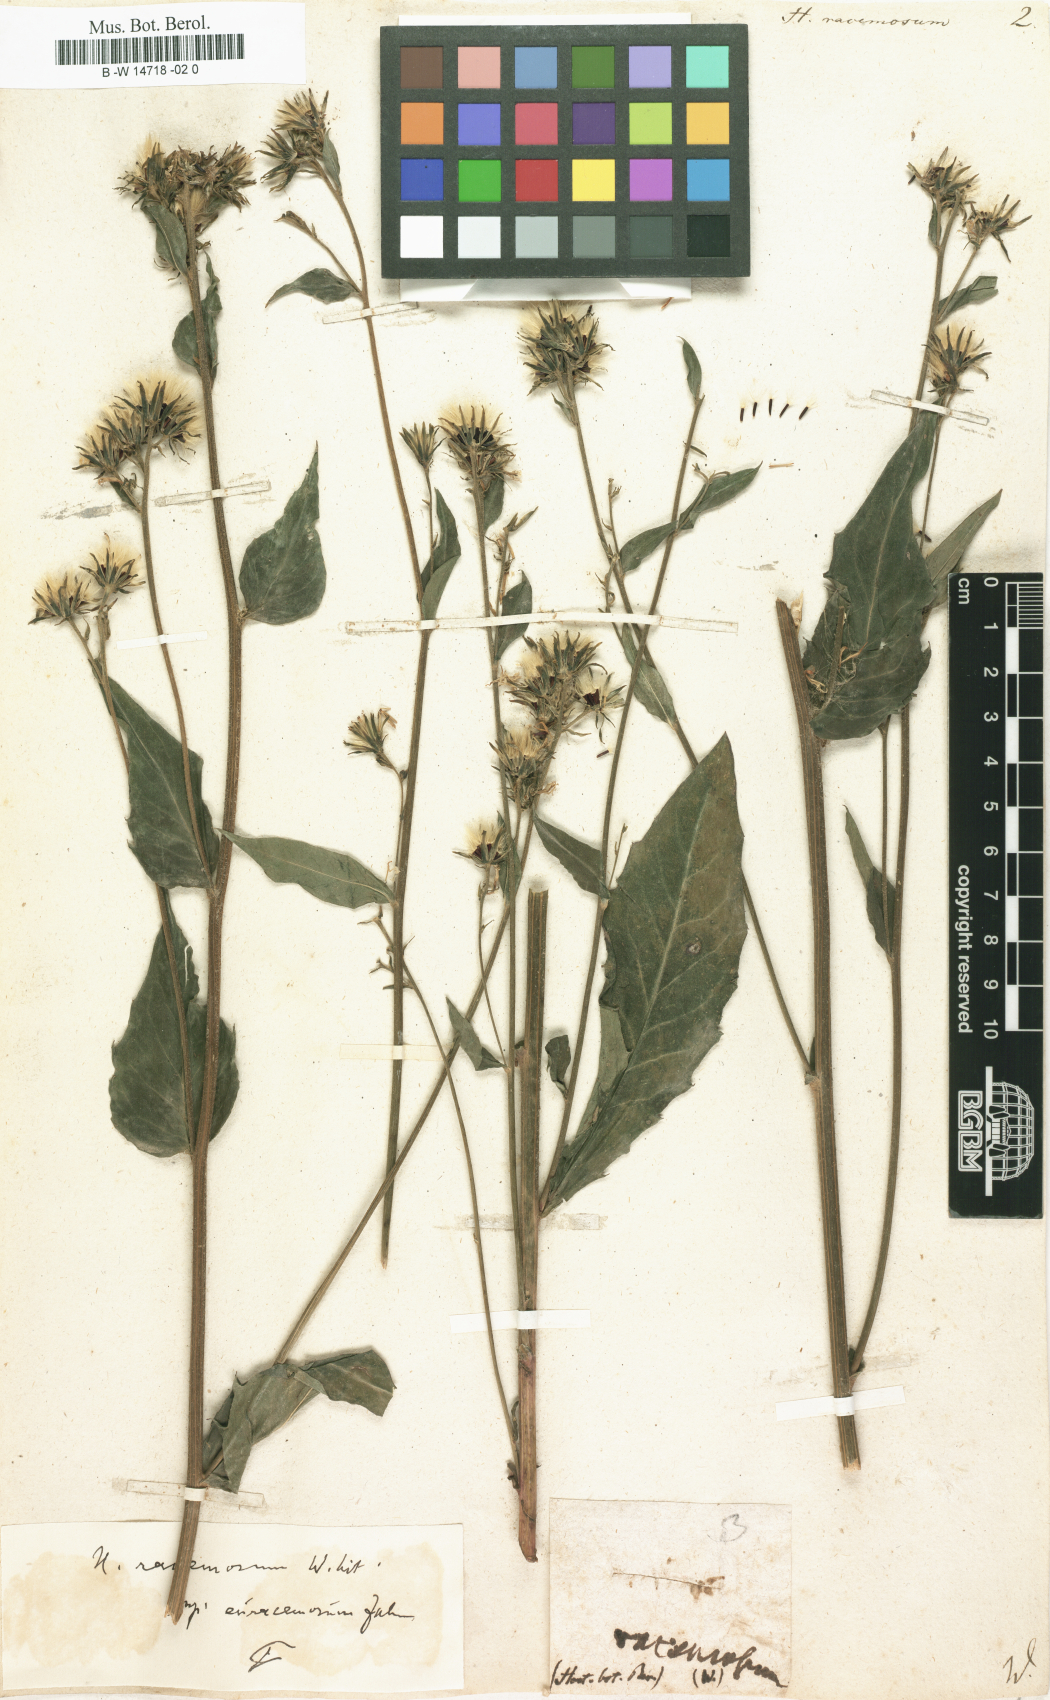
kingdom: Plantae
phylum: Tracheophyta
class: Magnoliopsida
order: Asterales
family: Asteraceae
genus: Hieracium
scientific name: Hieracium racemosum
